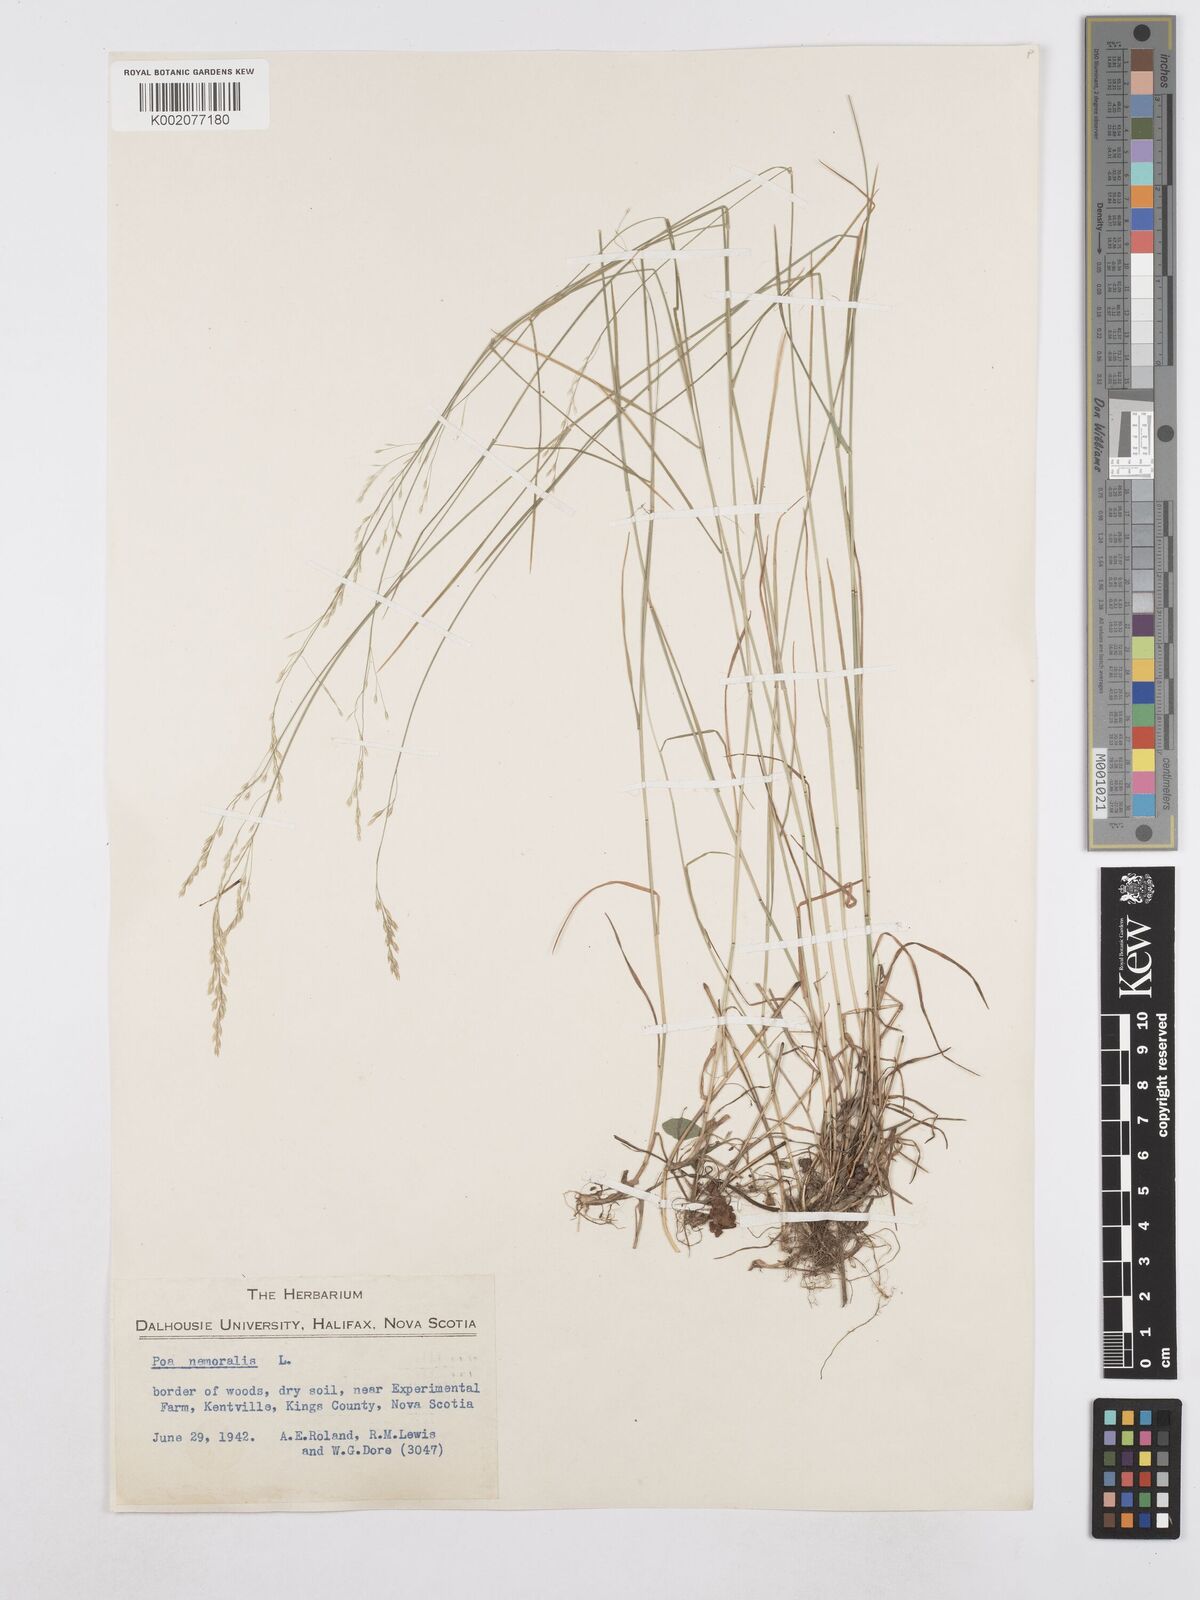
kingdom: Plantae
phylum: Tracheophyta
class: Liliopsida
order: Poales
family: Poaceae
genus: Poa
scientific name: Poa nemoralis
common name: Wood bluegrass
